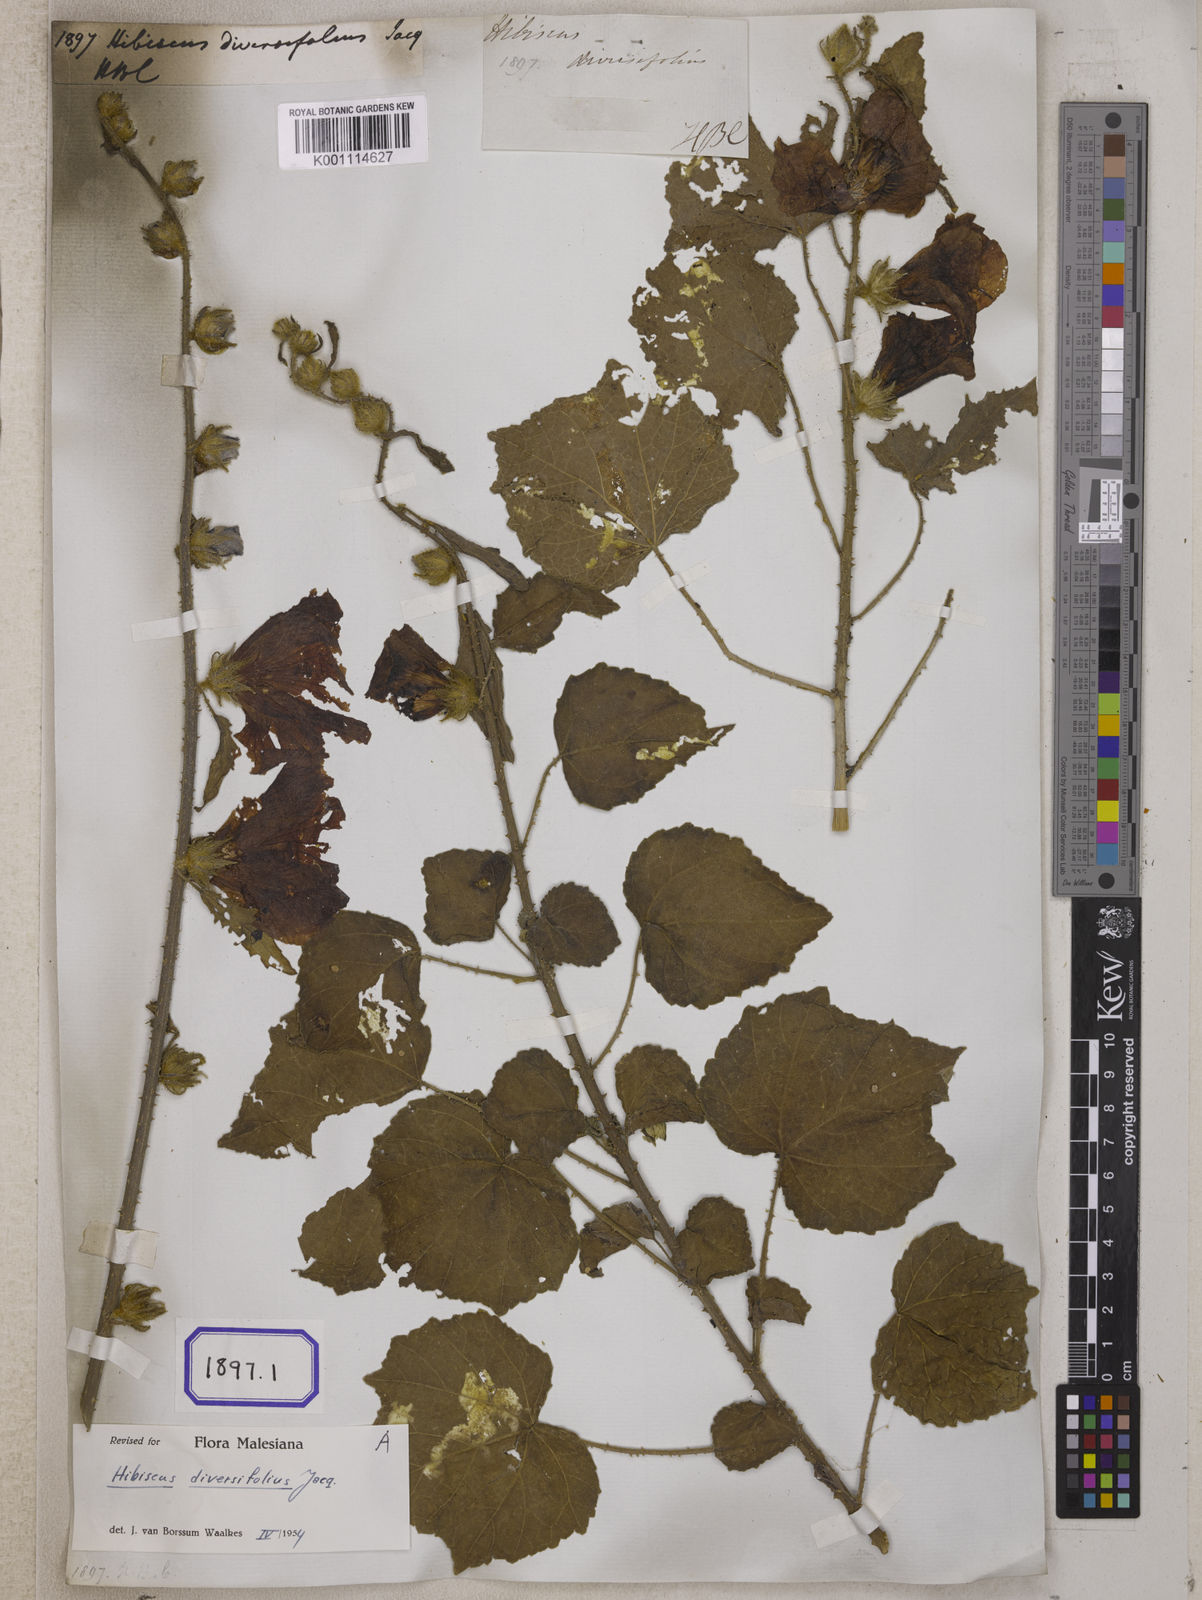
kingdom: Plantae
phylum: Tracheophyta
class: Magnoliopsida
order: Malvales
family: Malvaceae
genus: Hibiscus
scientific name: Hibiscus diversifolius
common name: Cape hibiscus
